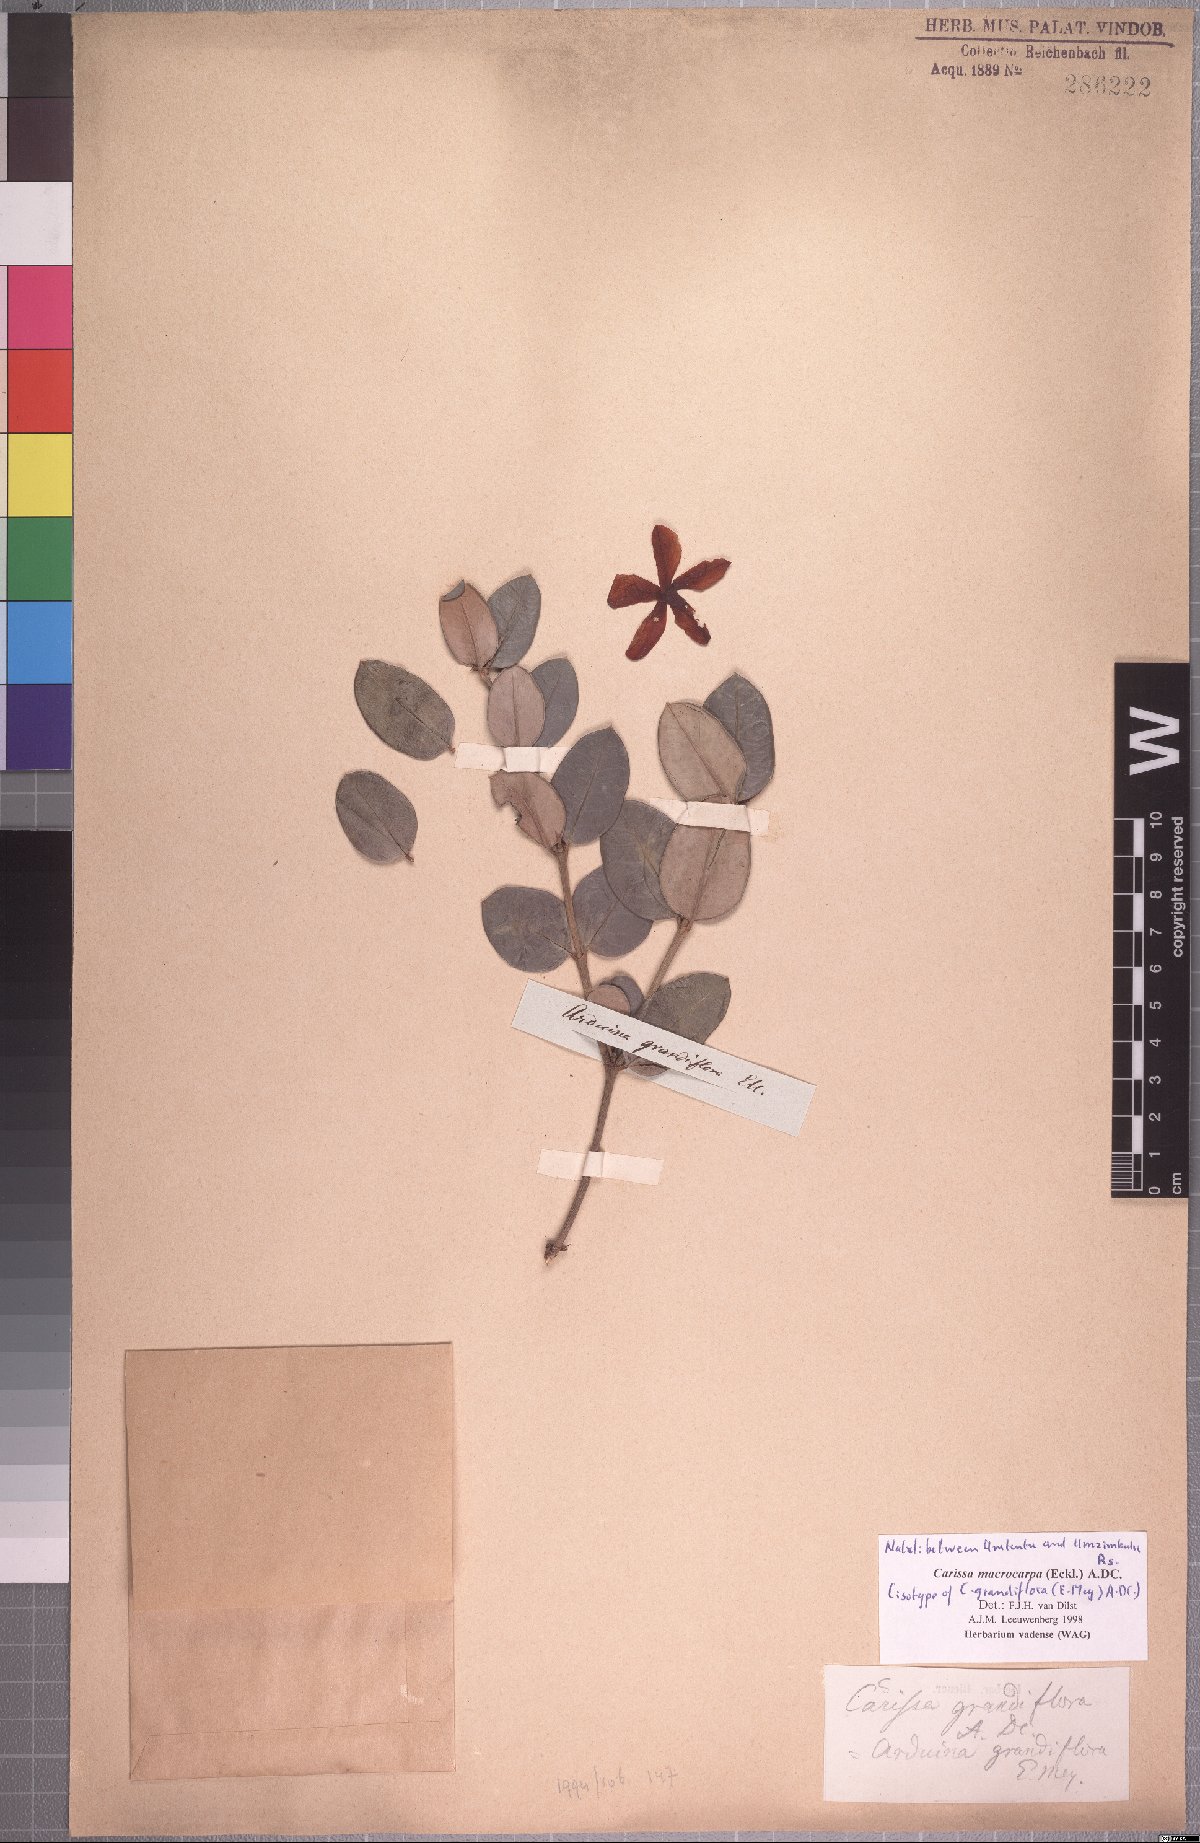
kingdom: Plantae
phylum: Tracheophyta
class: Magnoliopsida
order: Gentianales
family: Apocynaceae
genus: Carissa
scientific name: Carissa macrocarpa
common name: Natal plum
